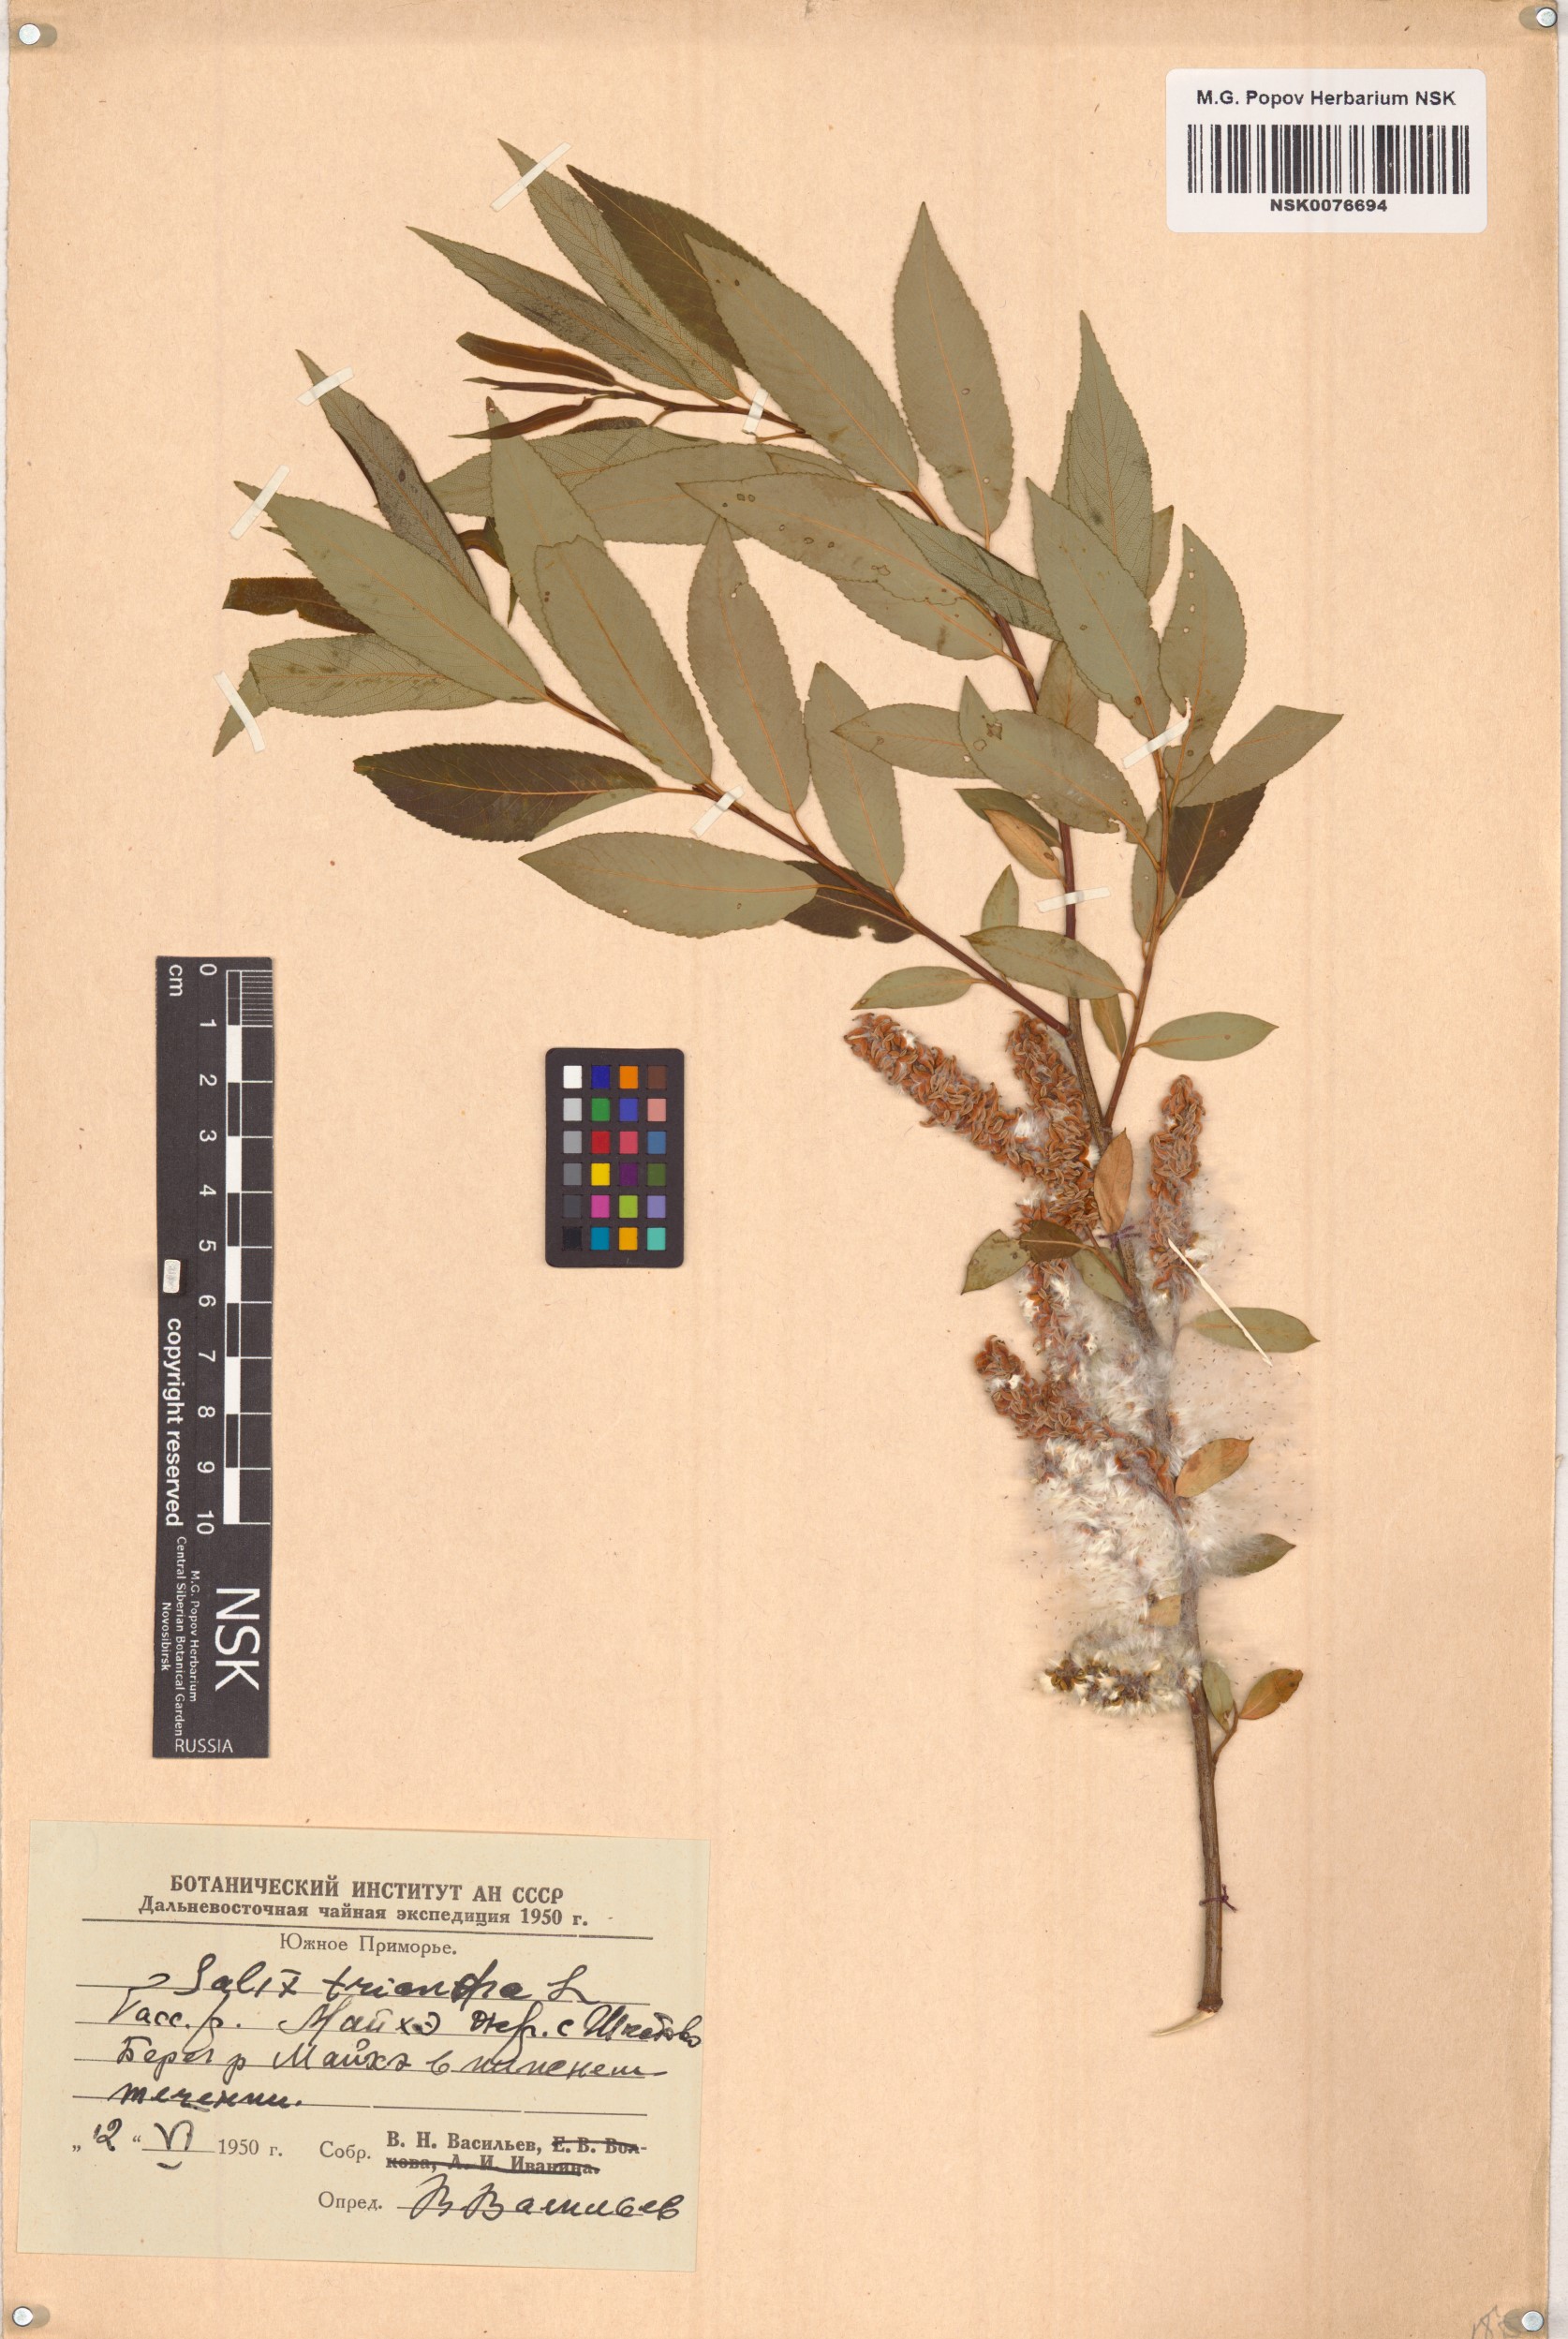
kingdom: Plantae
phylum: Tracheophyta
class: Magnoliopsida
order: Malpighiales
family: Salicaceae
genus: Salix
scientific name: Salix triandra
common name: Almond willow
